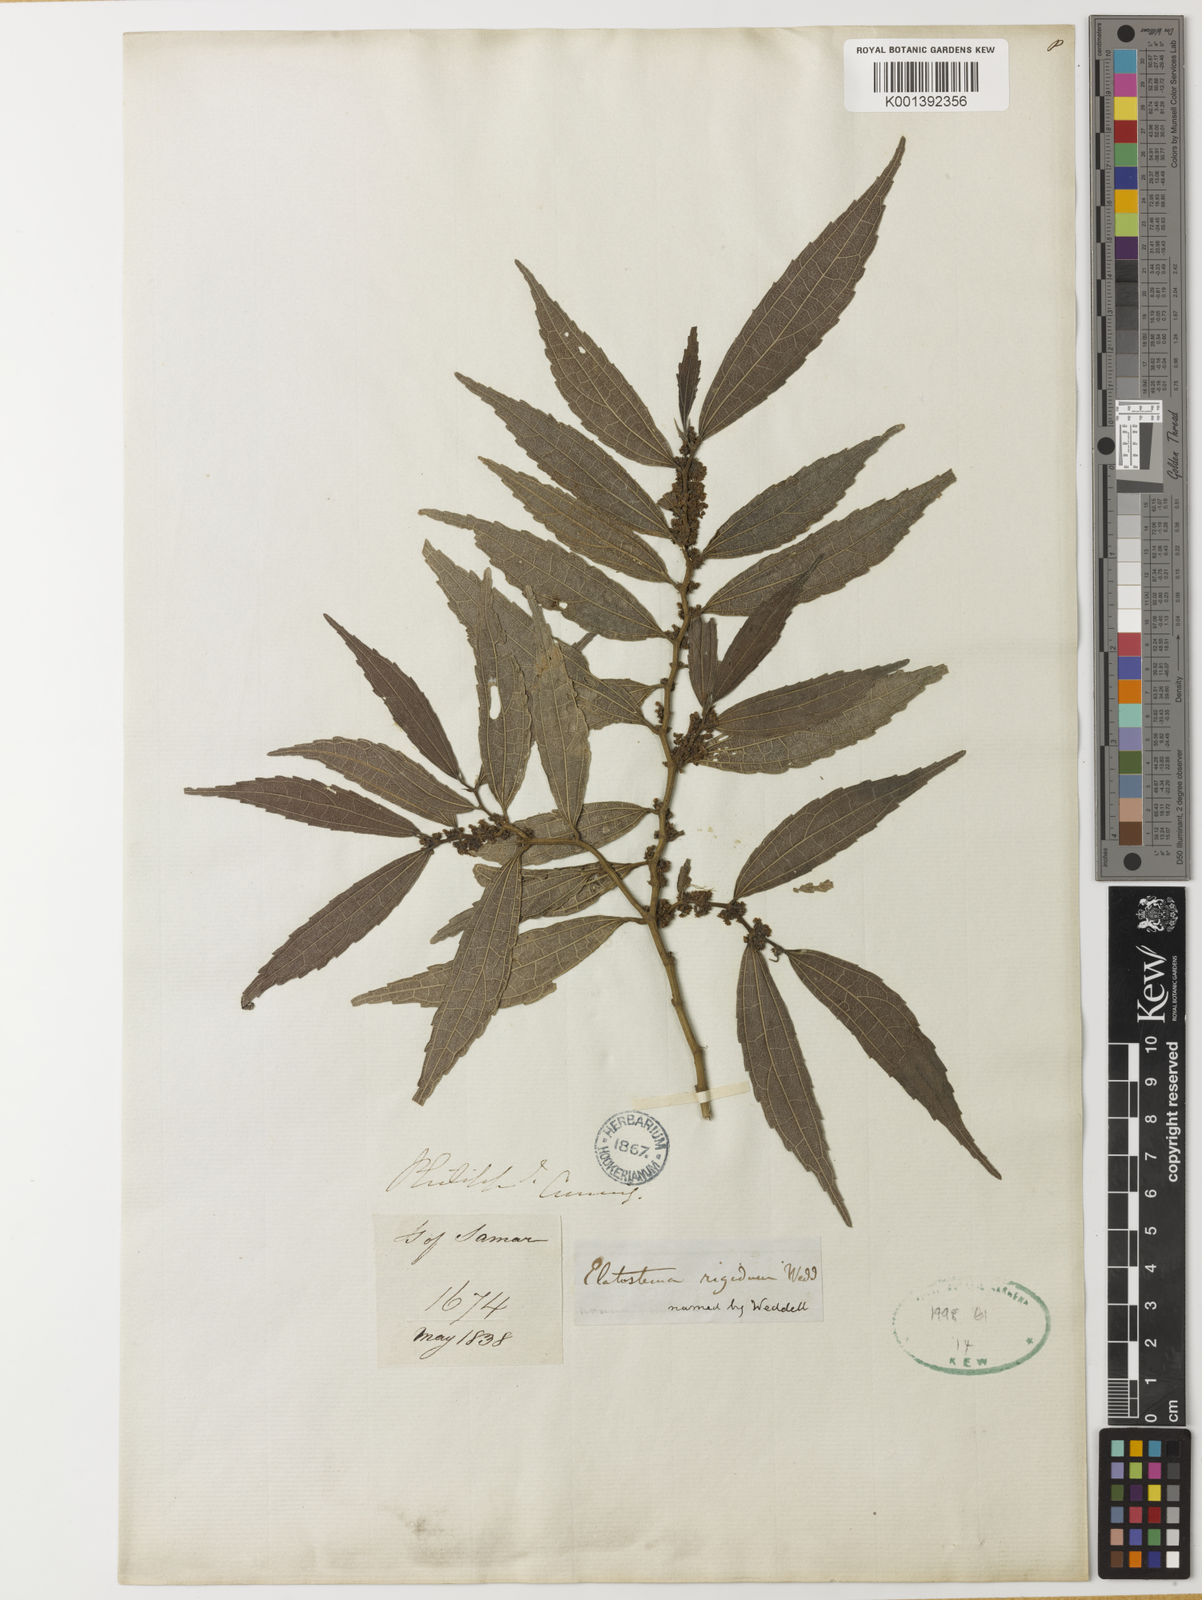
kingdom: Plantae
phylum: Tracheophyta
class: Magnoliopsida
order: Rosales
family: Urticaceae
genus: Elatostematoides
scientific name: Elatostematoides rigidum
